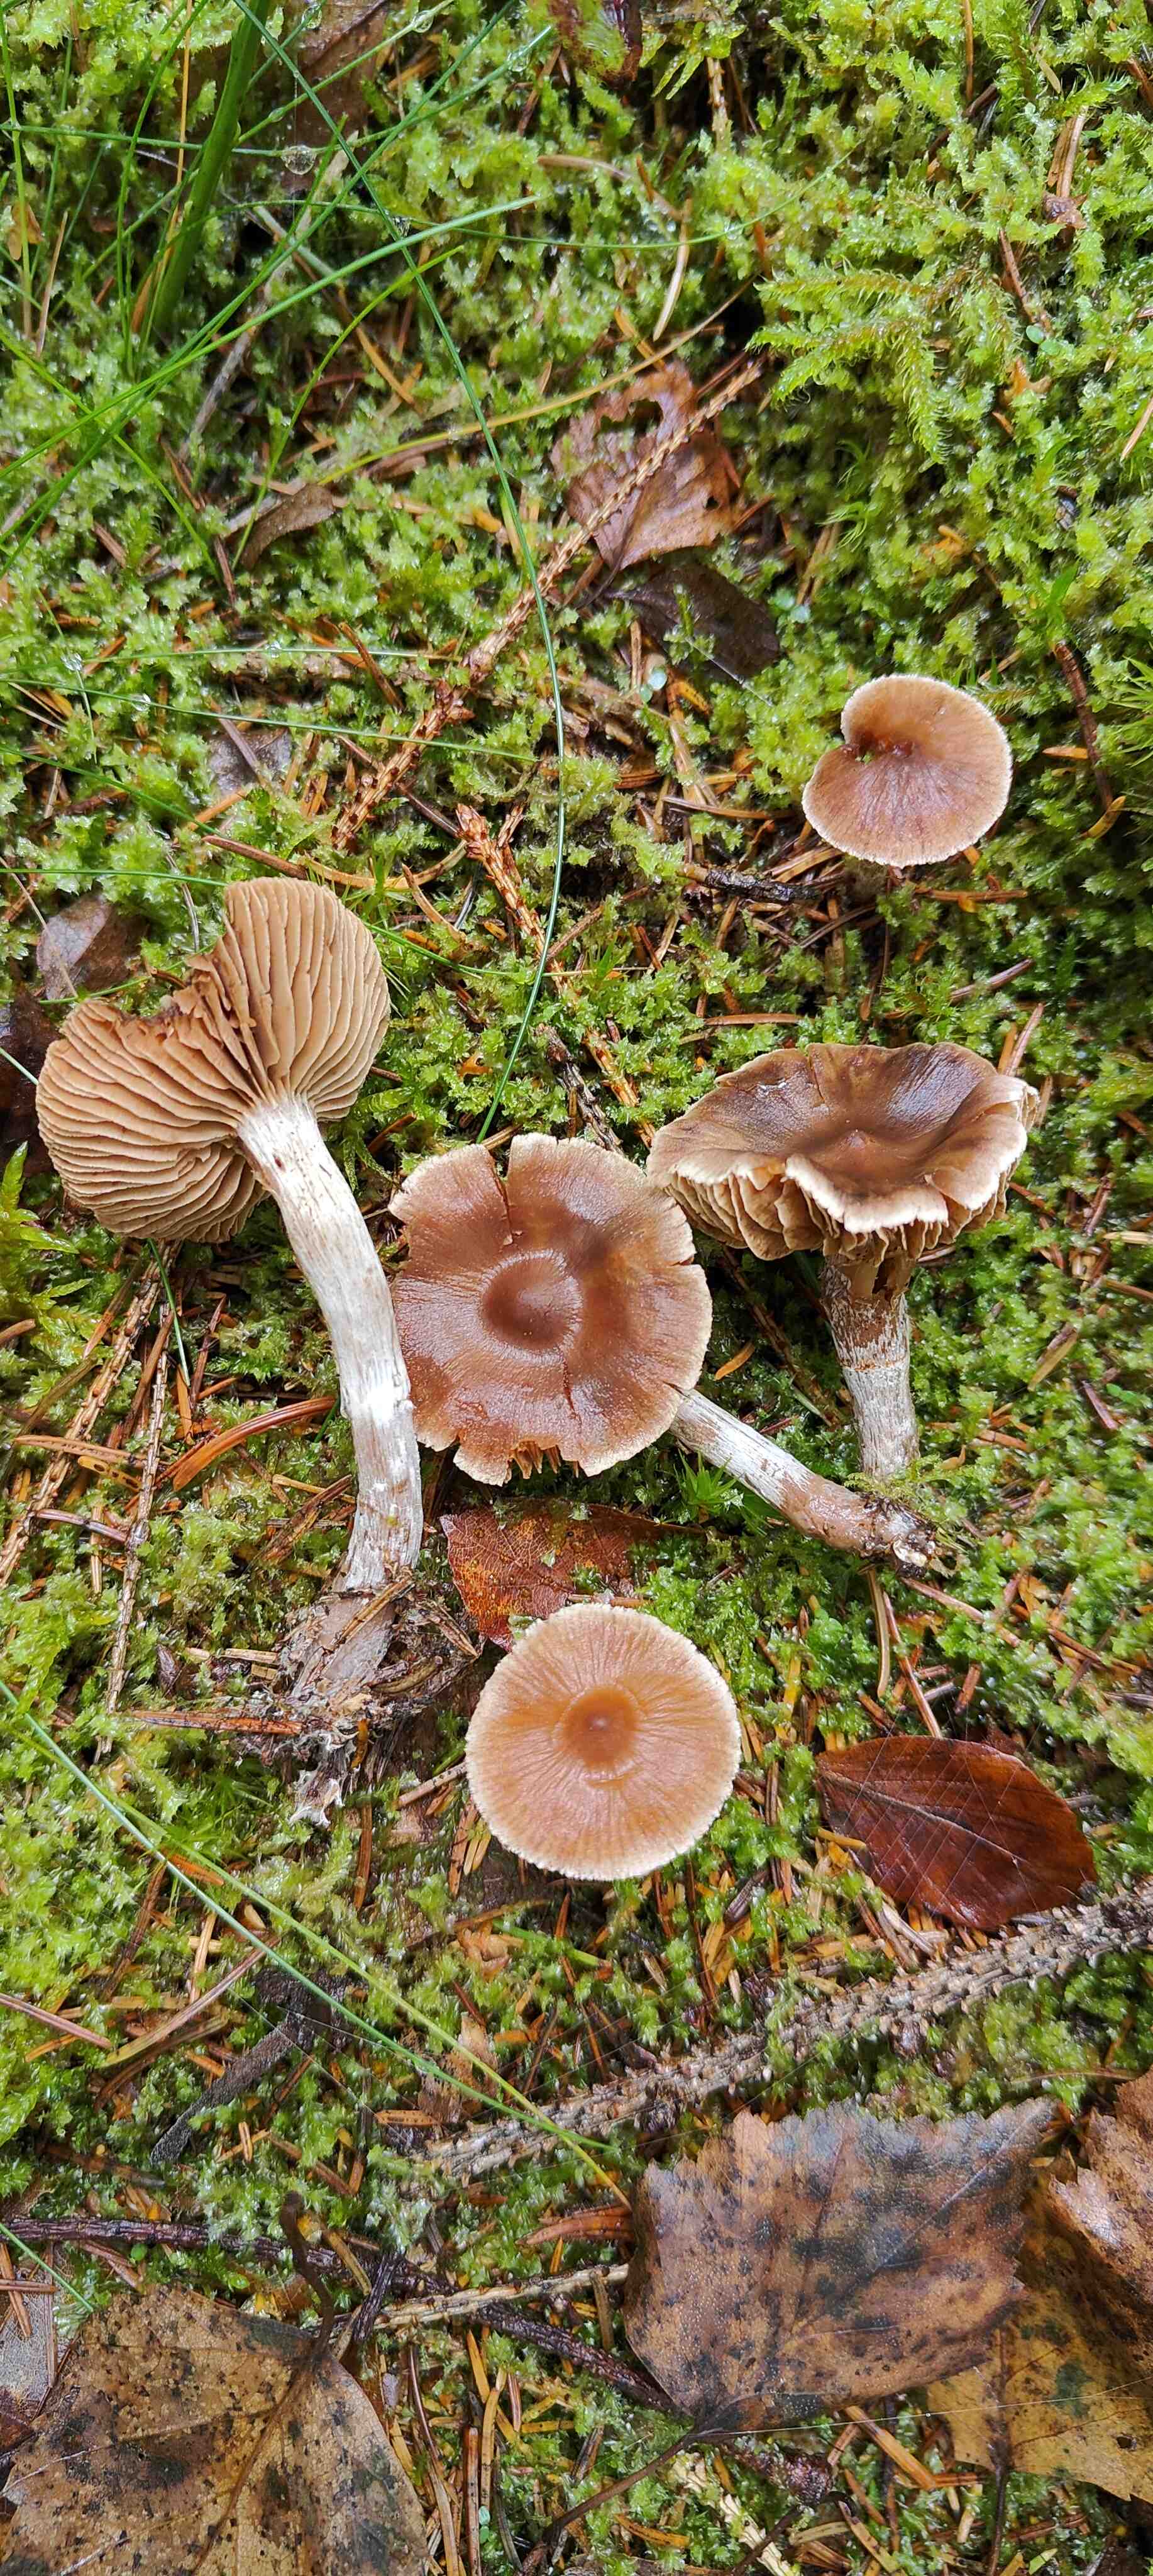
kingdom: Fungi
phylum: Basidiomycota
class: Agaricomycetes
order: Agaricales
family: Cortinariaceae
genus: Cortinarius
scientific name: Cortinarius
